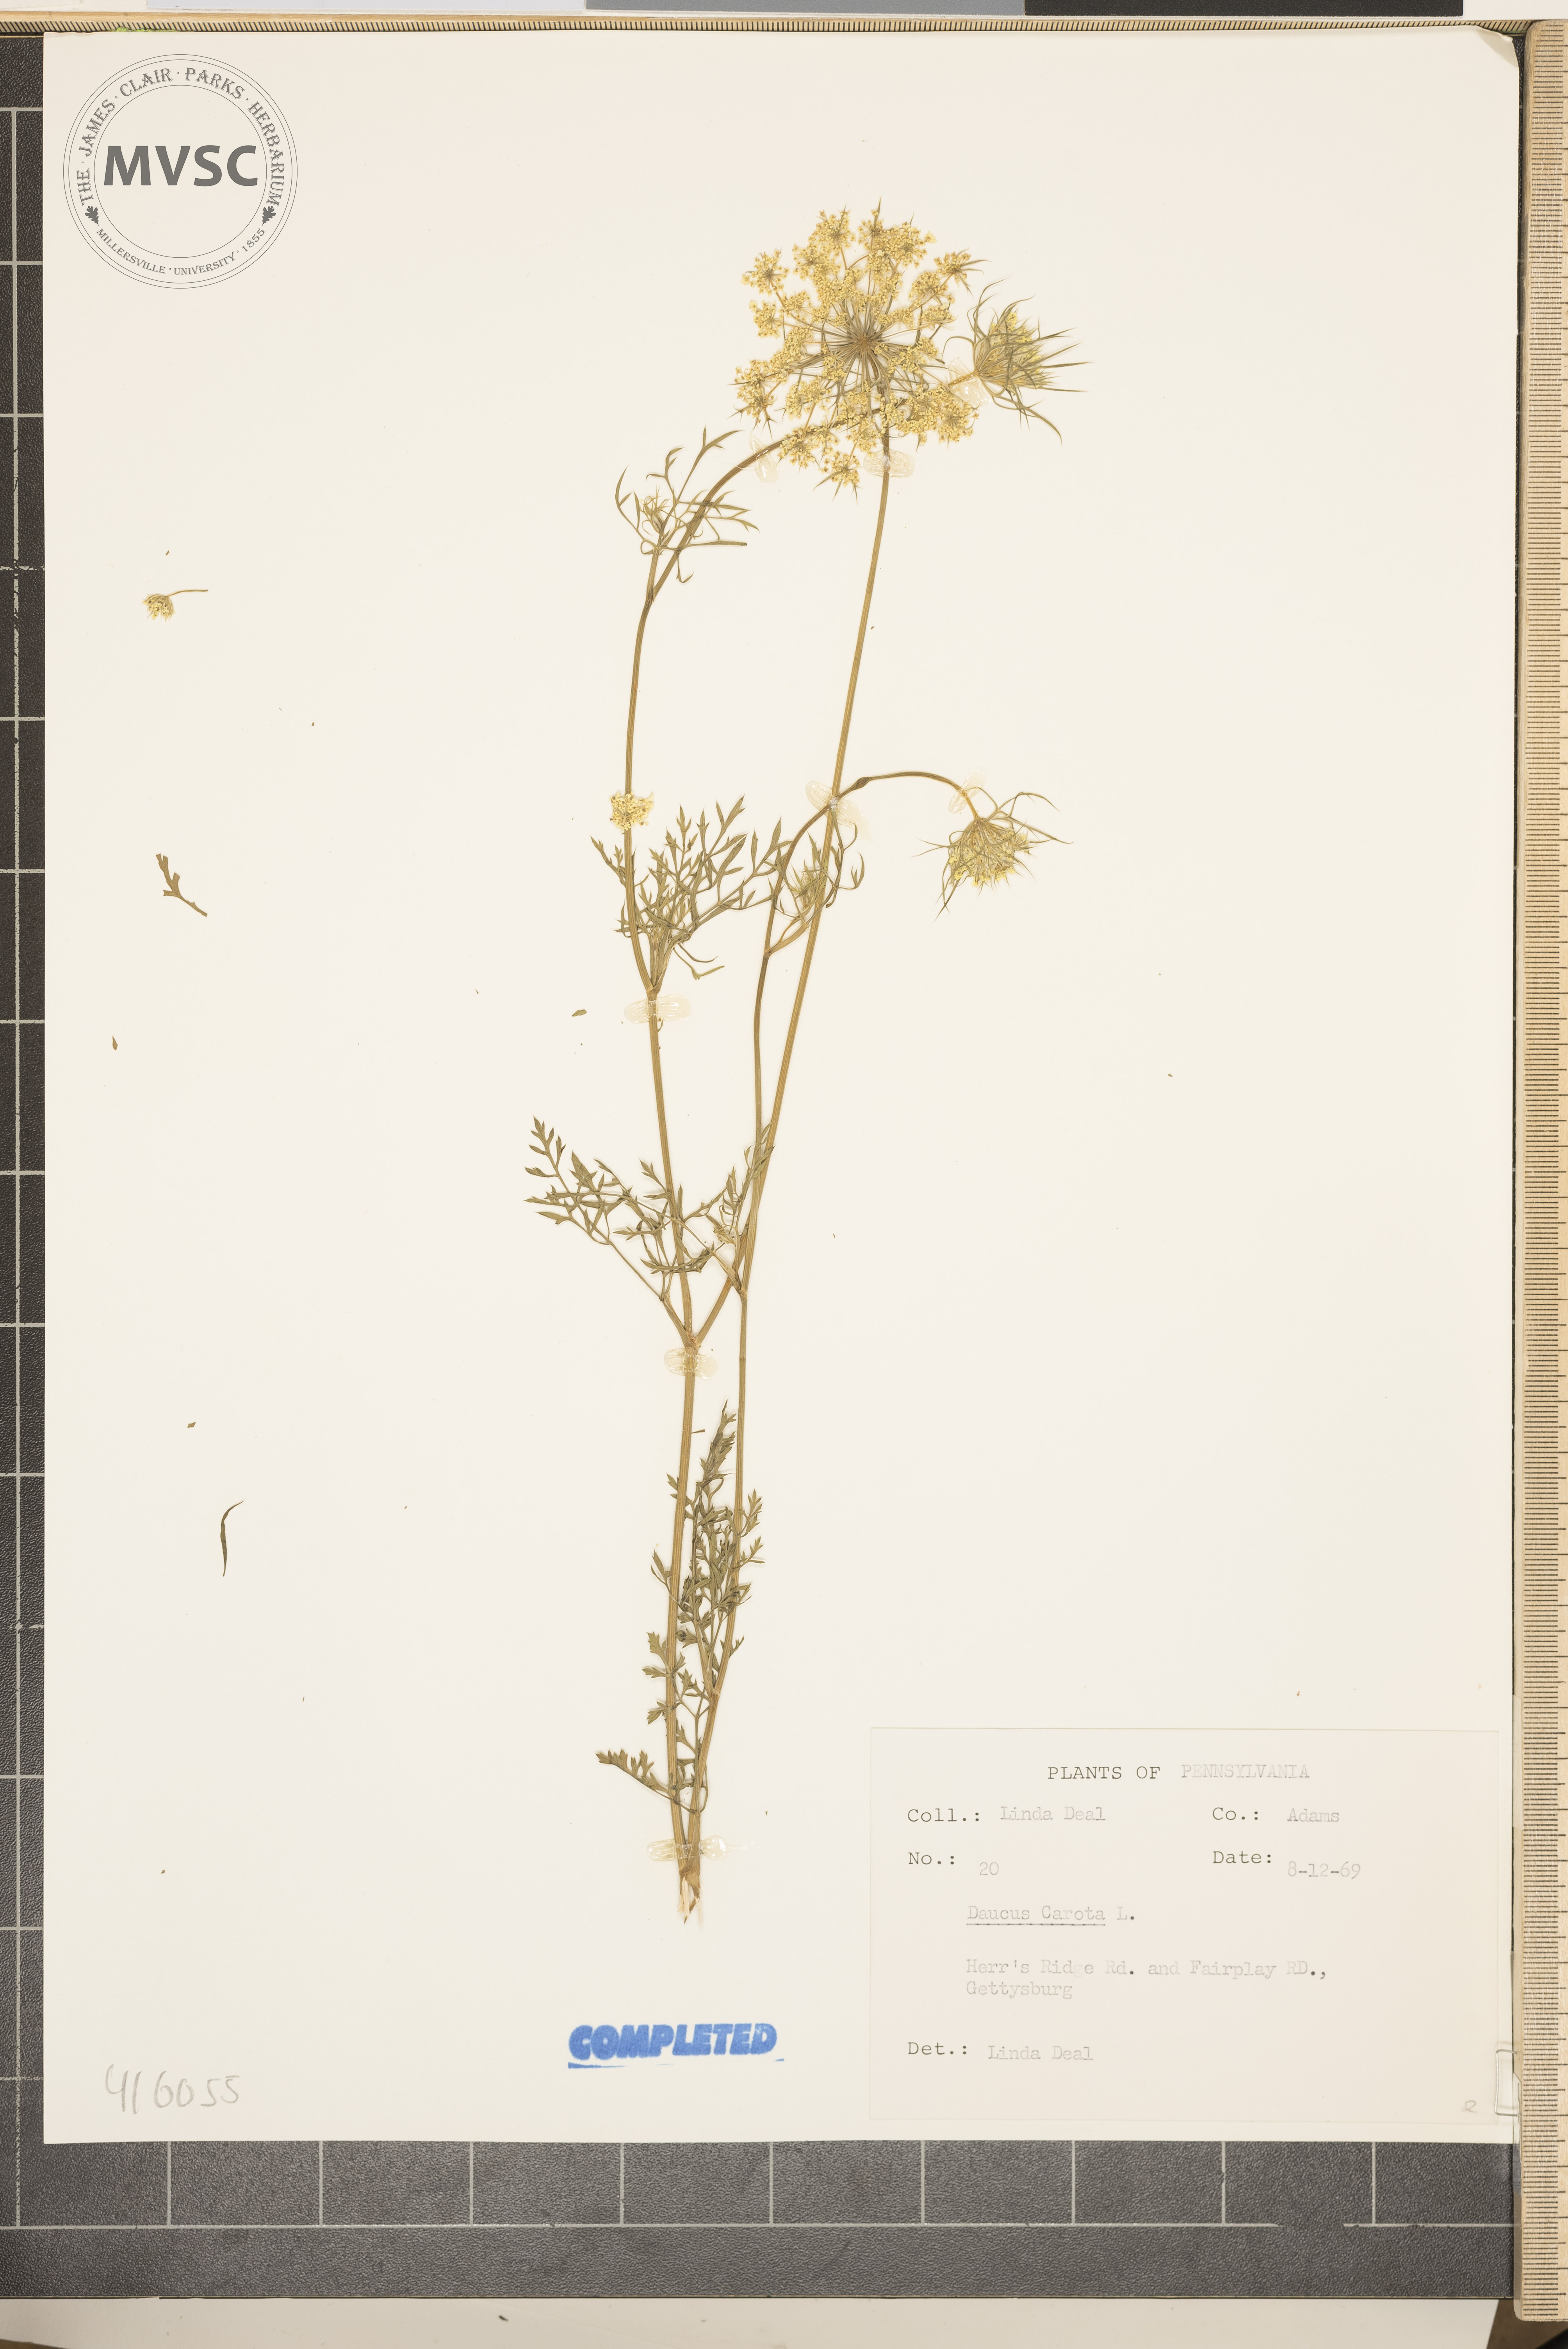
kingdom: Plantae
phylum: Tracheophyta
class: Magnoliopsida
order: Apiales
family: Apiaceae
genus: Daucus
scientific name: Daucus carota
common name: Wild carrot
